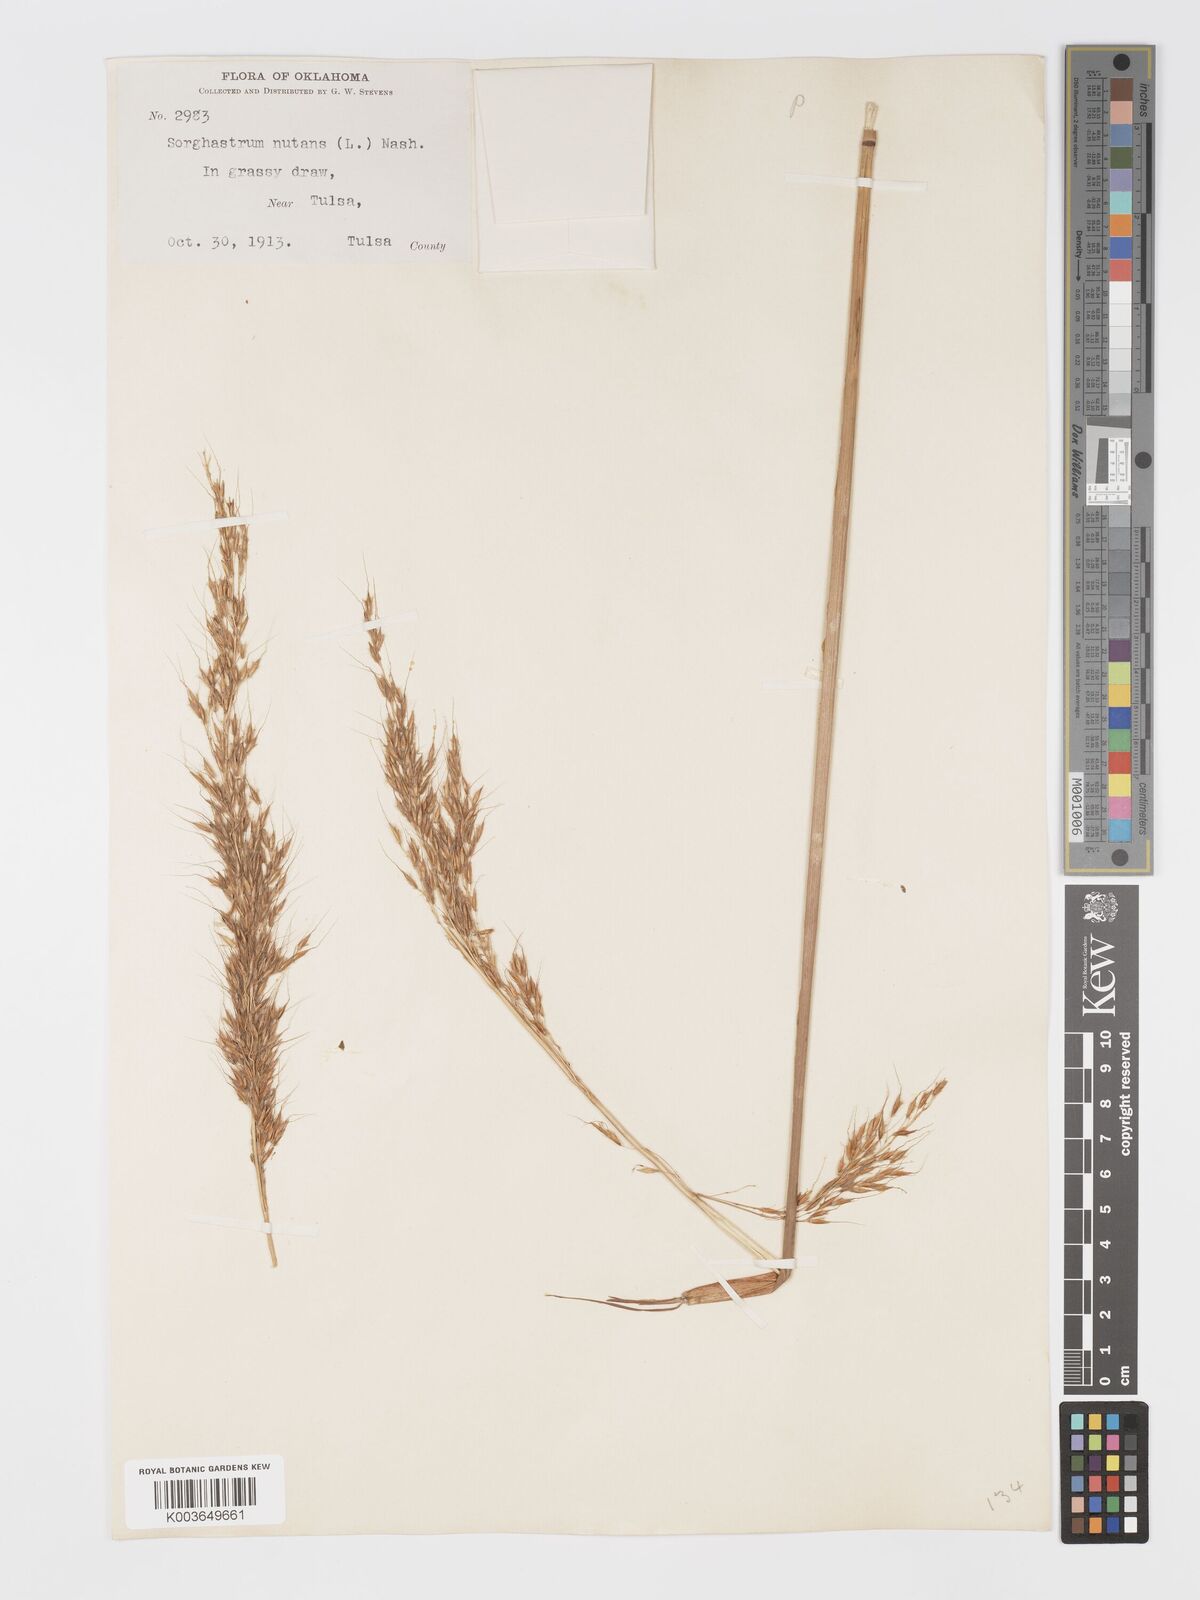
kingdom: Plantae
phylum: Tracheophyta
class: Liliopsida
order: Poales
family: Poaceae
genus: Sorghastrum
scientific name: Sorghastrum nutans
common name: Indian grass
